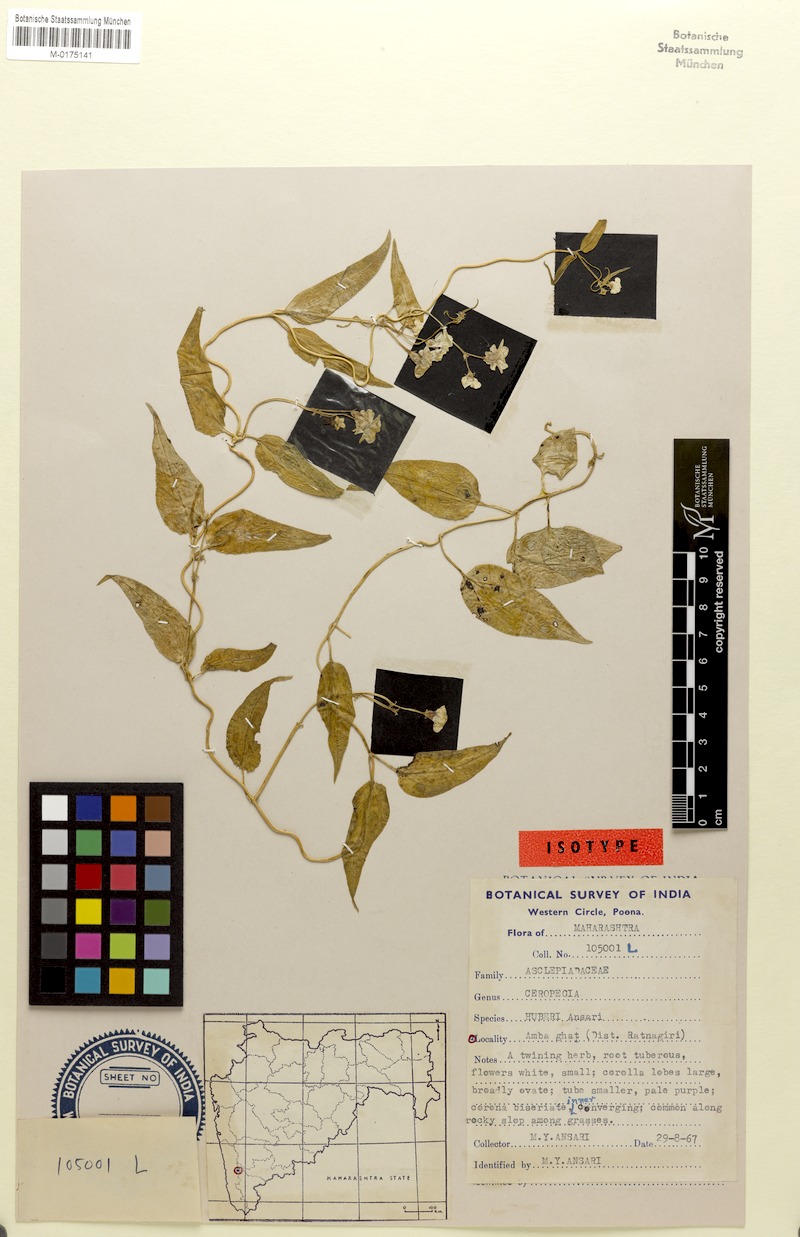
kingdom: Plantae
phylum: Tracheophyta
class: Magnoliopsida
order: Gentianales
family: Apocynaceae
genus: Ceropegia
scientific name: Ceropegia santapaui
